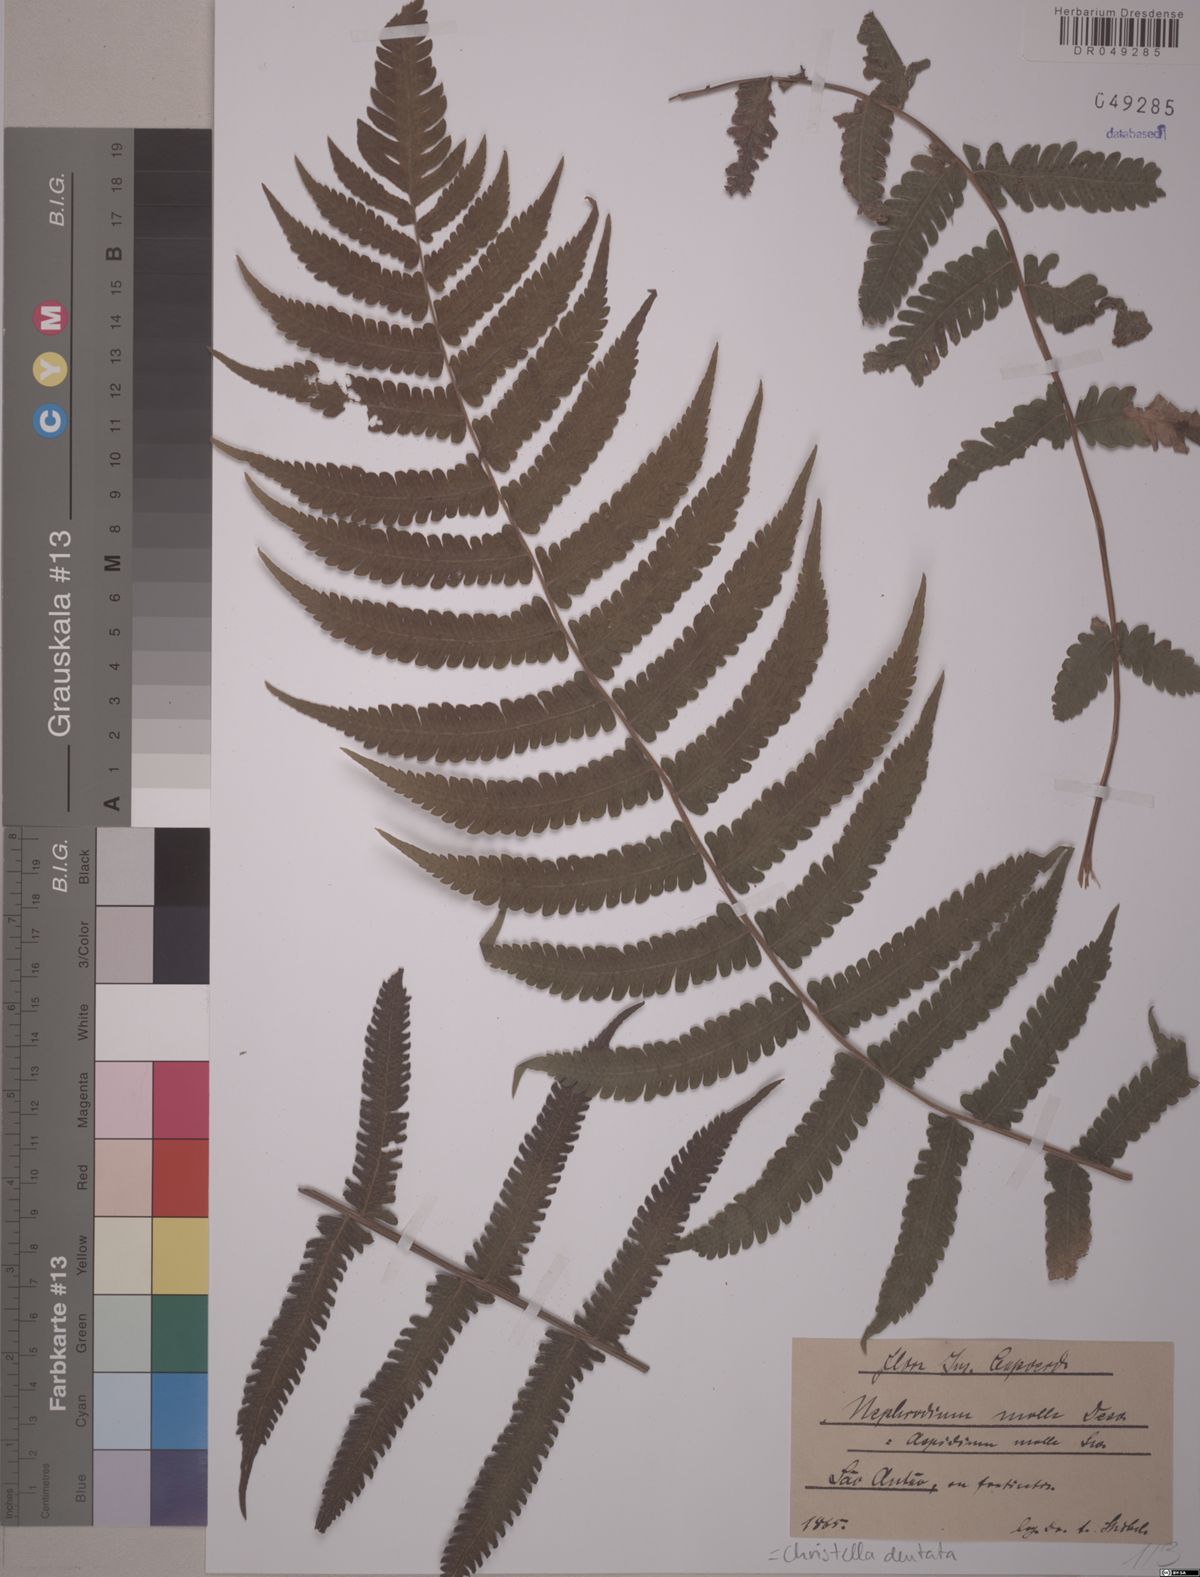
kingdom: Plantae
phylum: Tracheophyta
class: Polypodiopsida
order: Polypodiales
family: Thelypteridaceae
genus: Christella
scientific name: Christella dentata
